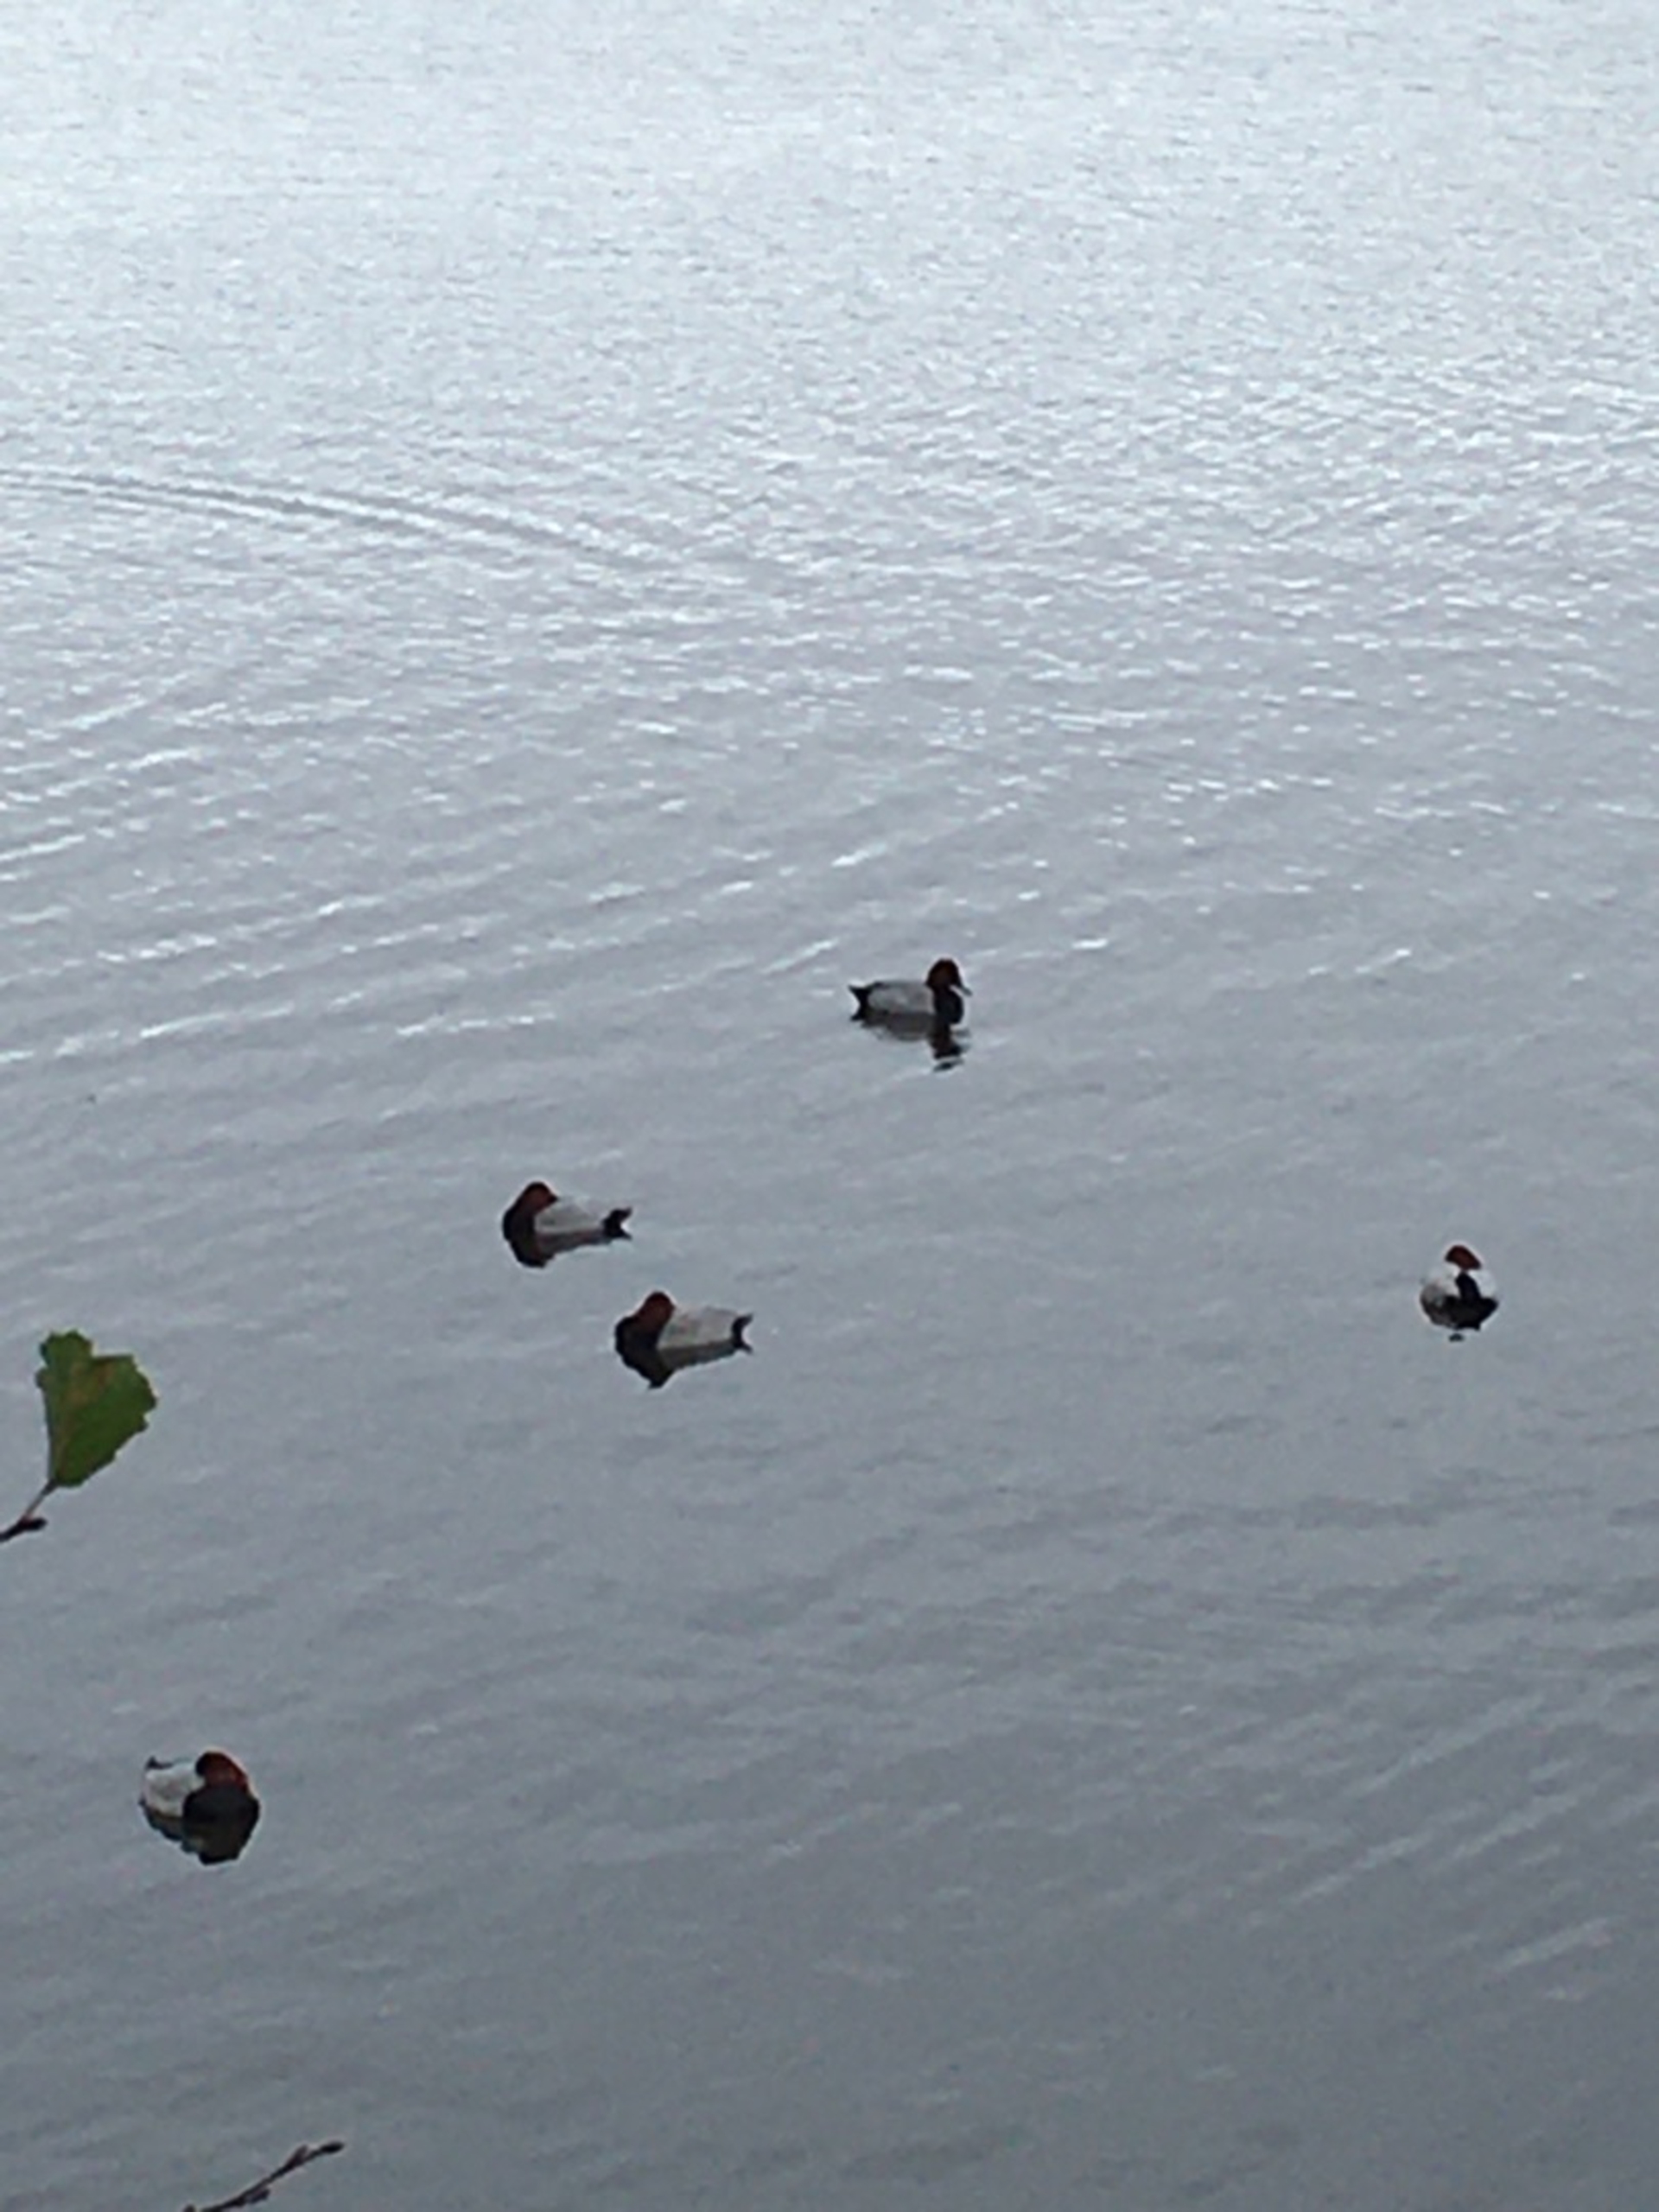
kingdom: Animalia
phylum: Chordata
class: Aves
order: Anseriformes
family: Anatidae
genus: Aythya
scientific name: Aythya ferina
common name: Taffeland
